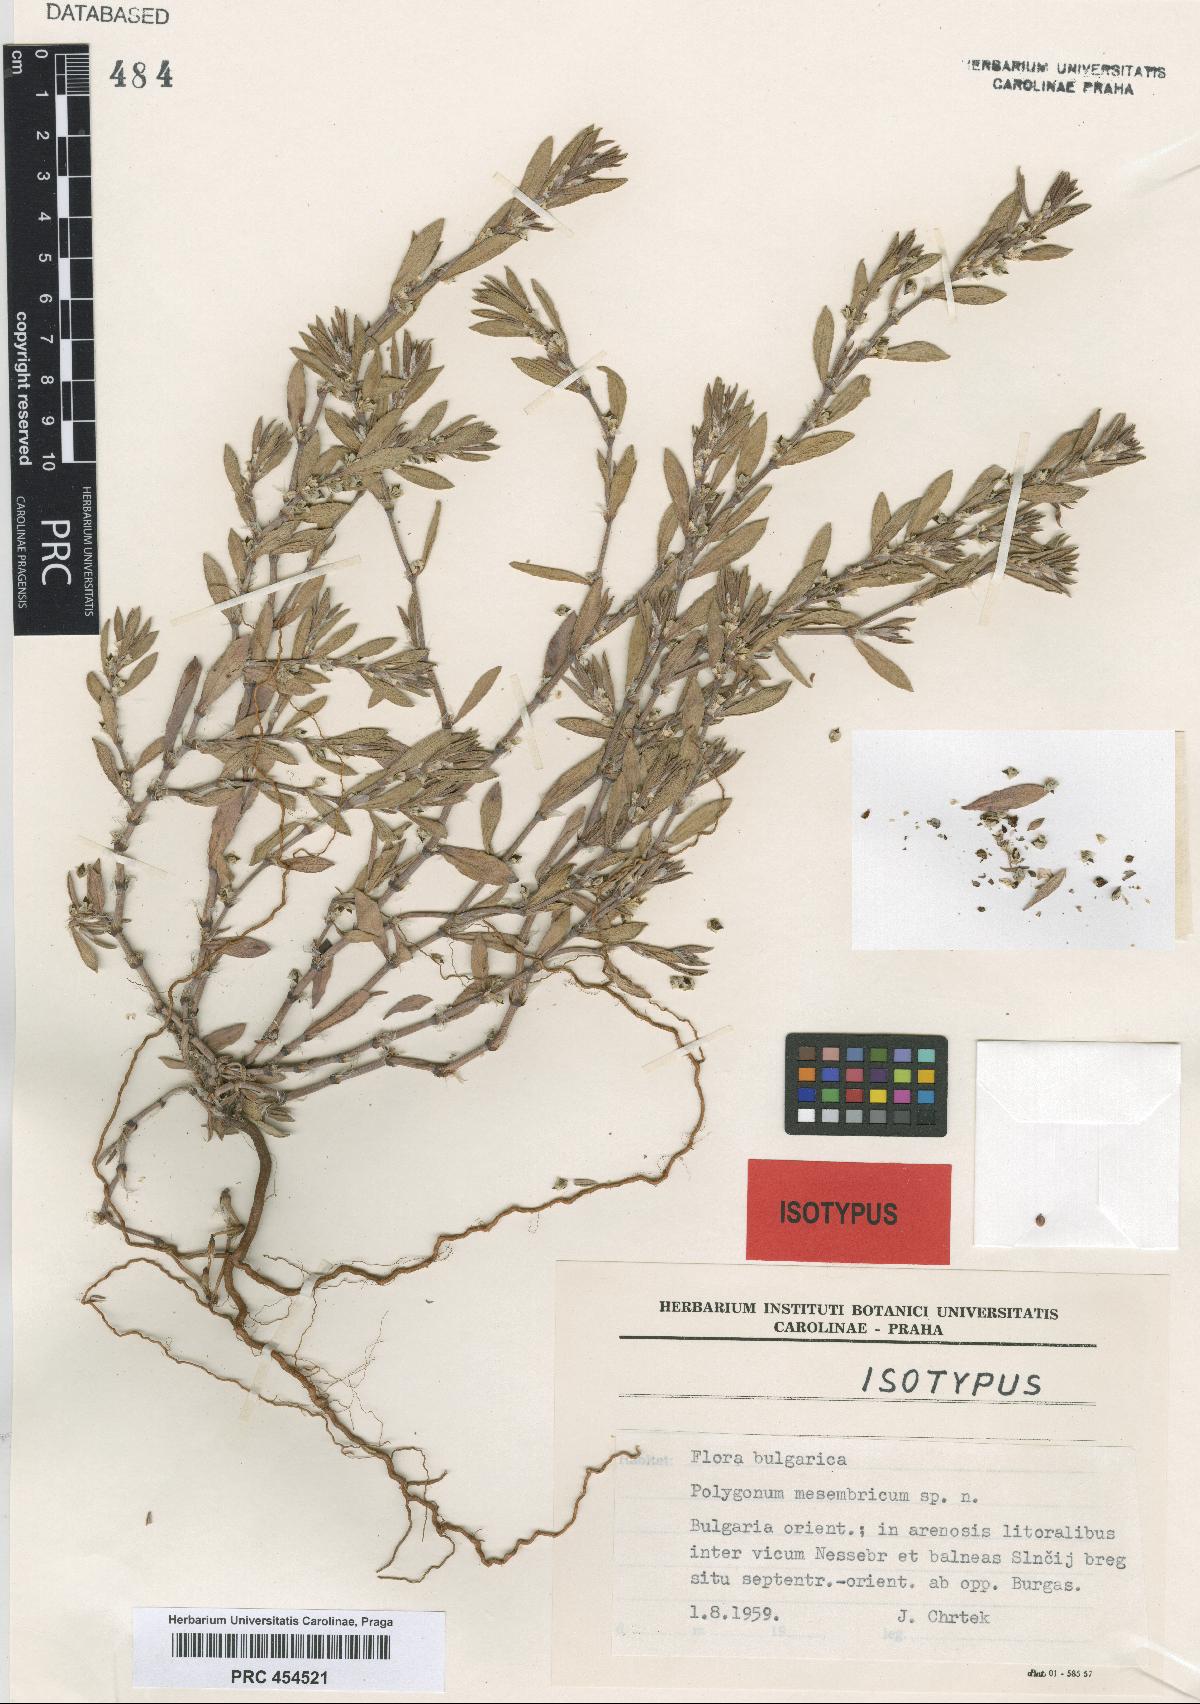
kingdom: Plantae
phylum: Tracheophyta
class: Magnoliopsida
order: Caryophyllales
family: Polygonaceae
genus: Polygonum
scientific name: Polygonum mesembricum
